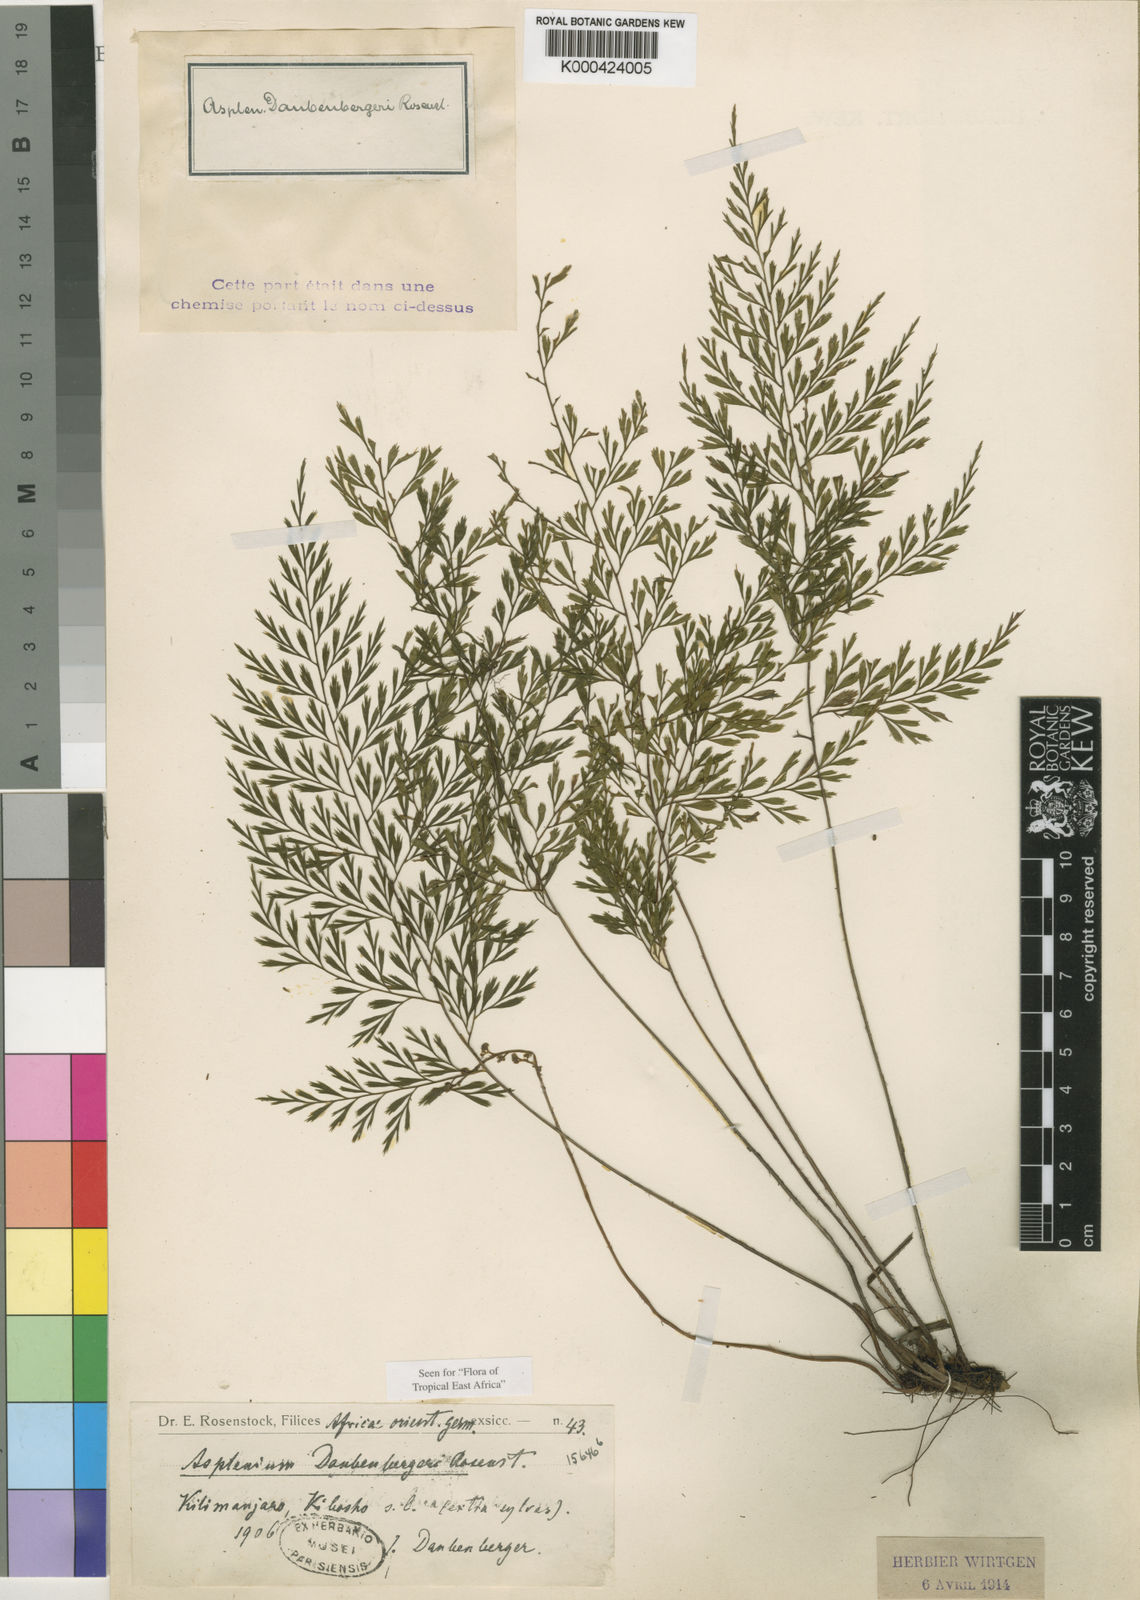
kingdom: Plantae
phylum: Tracheophyta
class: Polypodiopsida
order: Polypodiales
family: Aspleniaceae
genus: Asplenium
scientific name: Asplenium linckii
